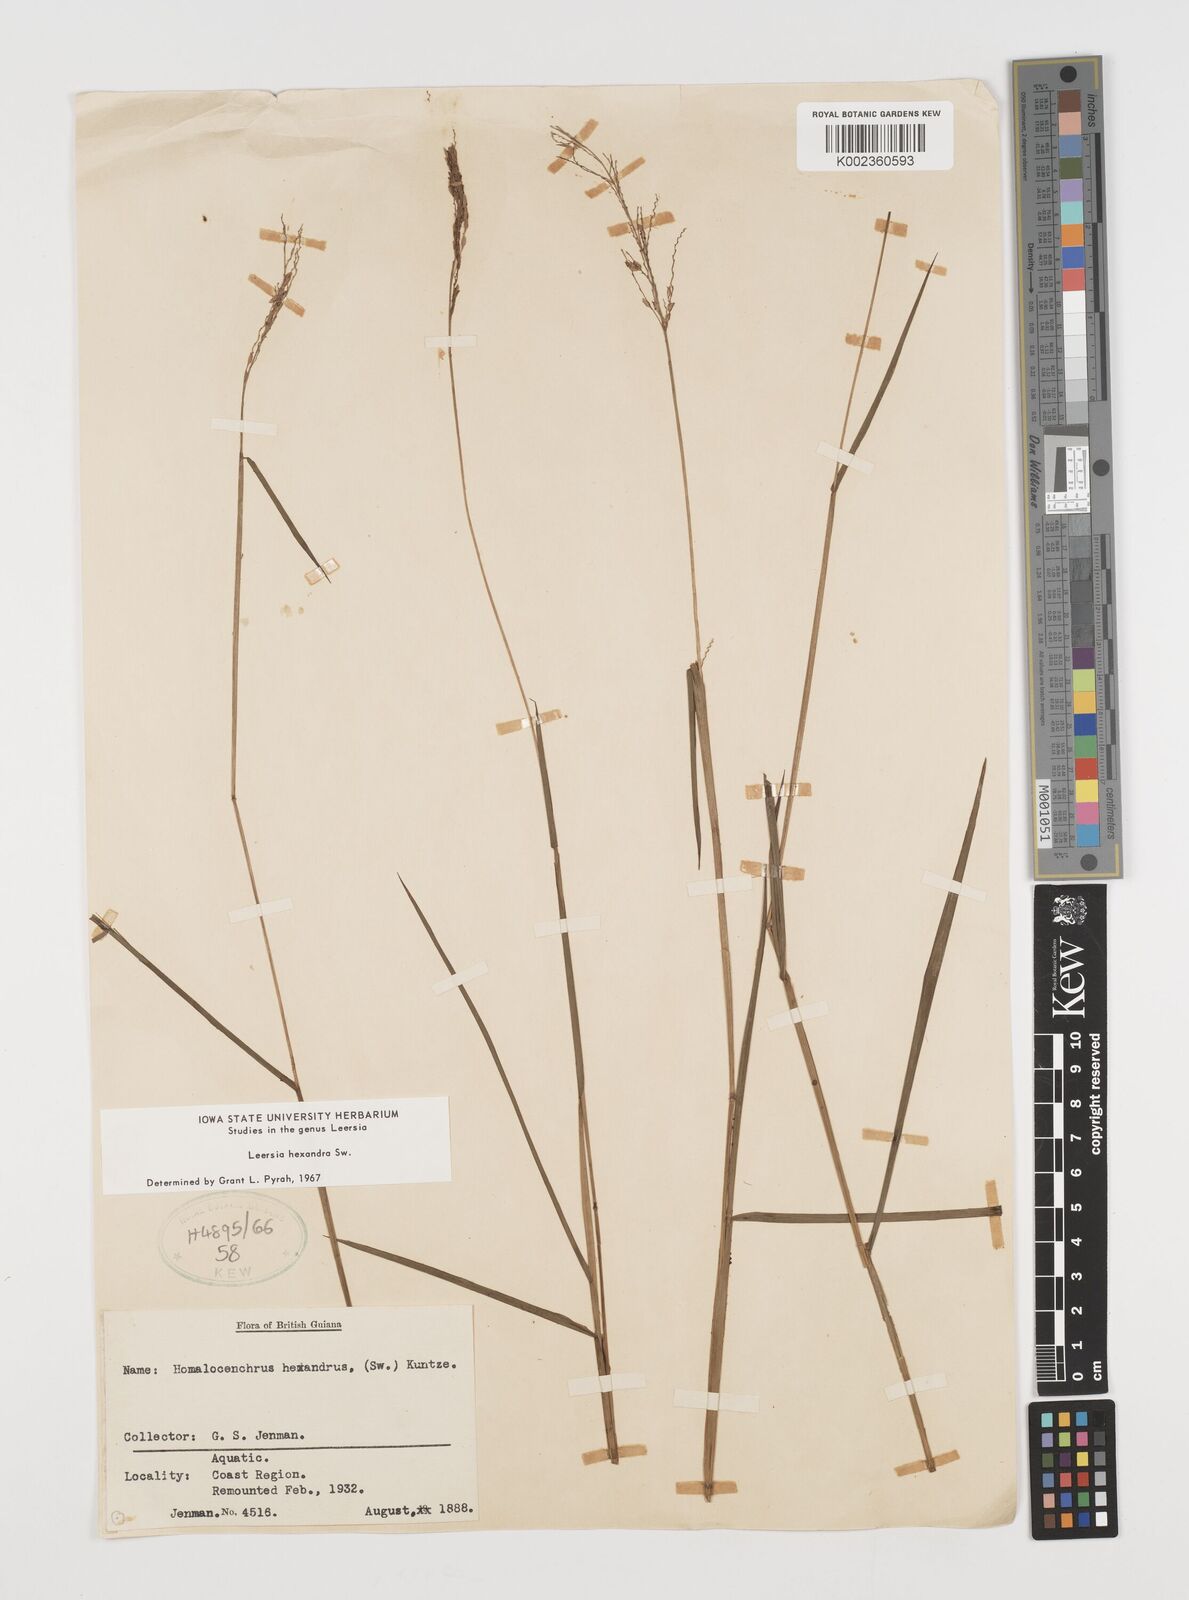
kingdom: Plantae
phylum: Tracheophyta
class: Liliopsida
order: Poales
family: Poaceae
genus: Leersia
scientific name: Leersia hexandra
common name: Southern cut grass
